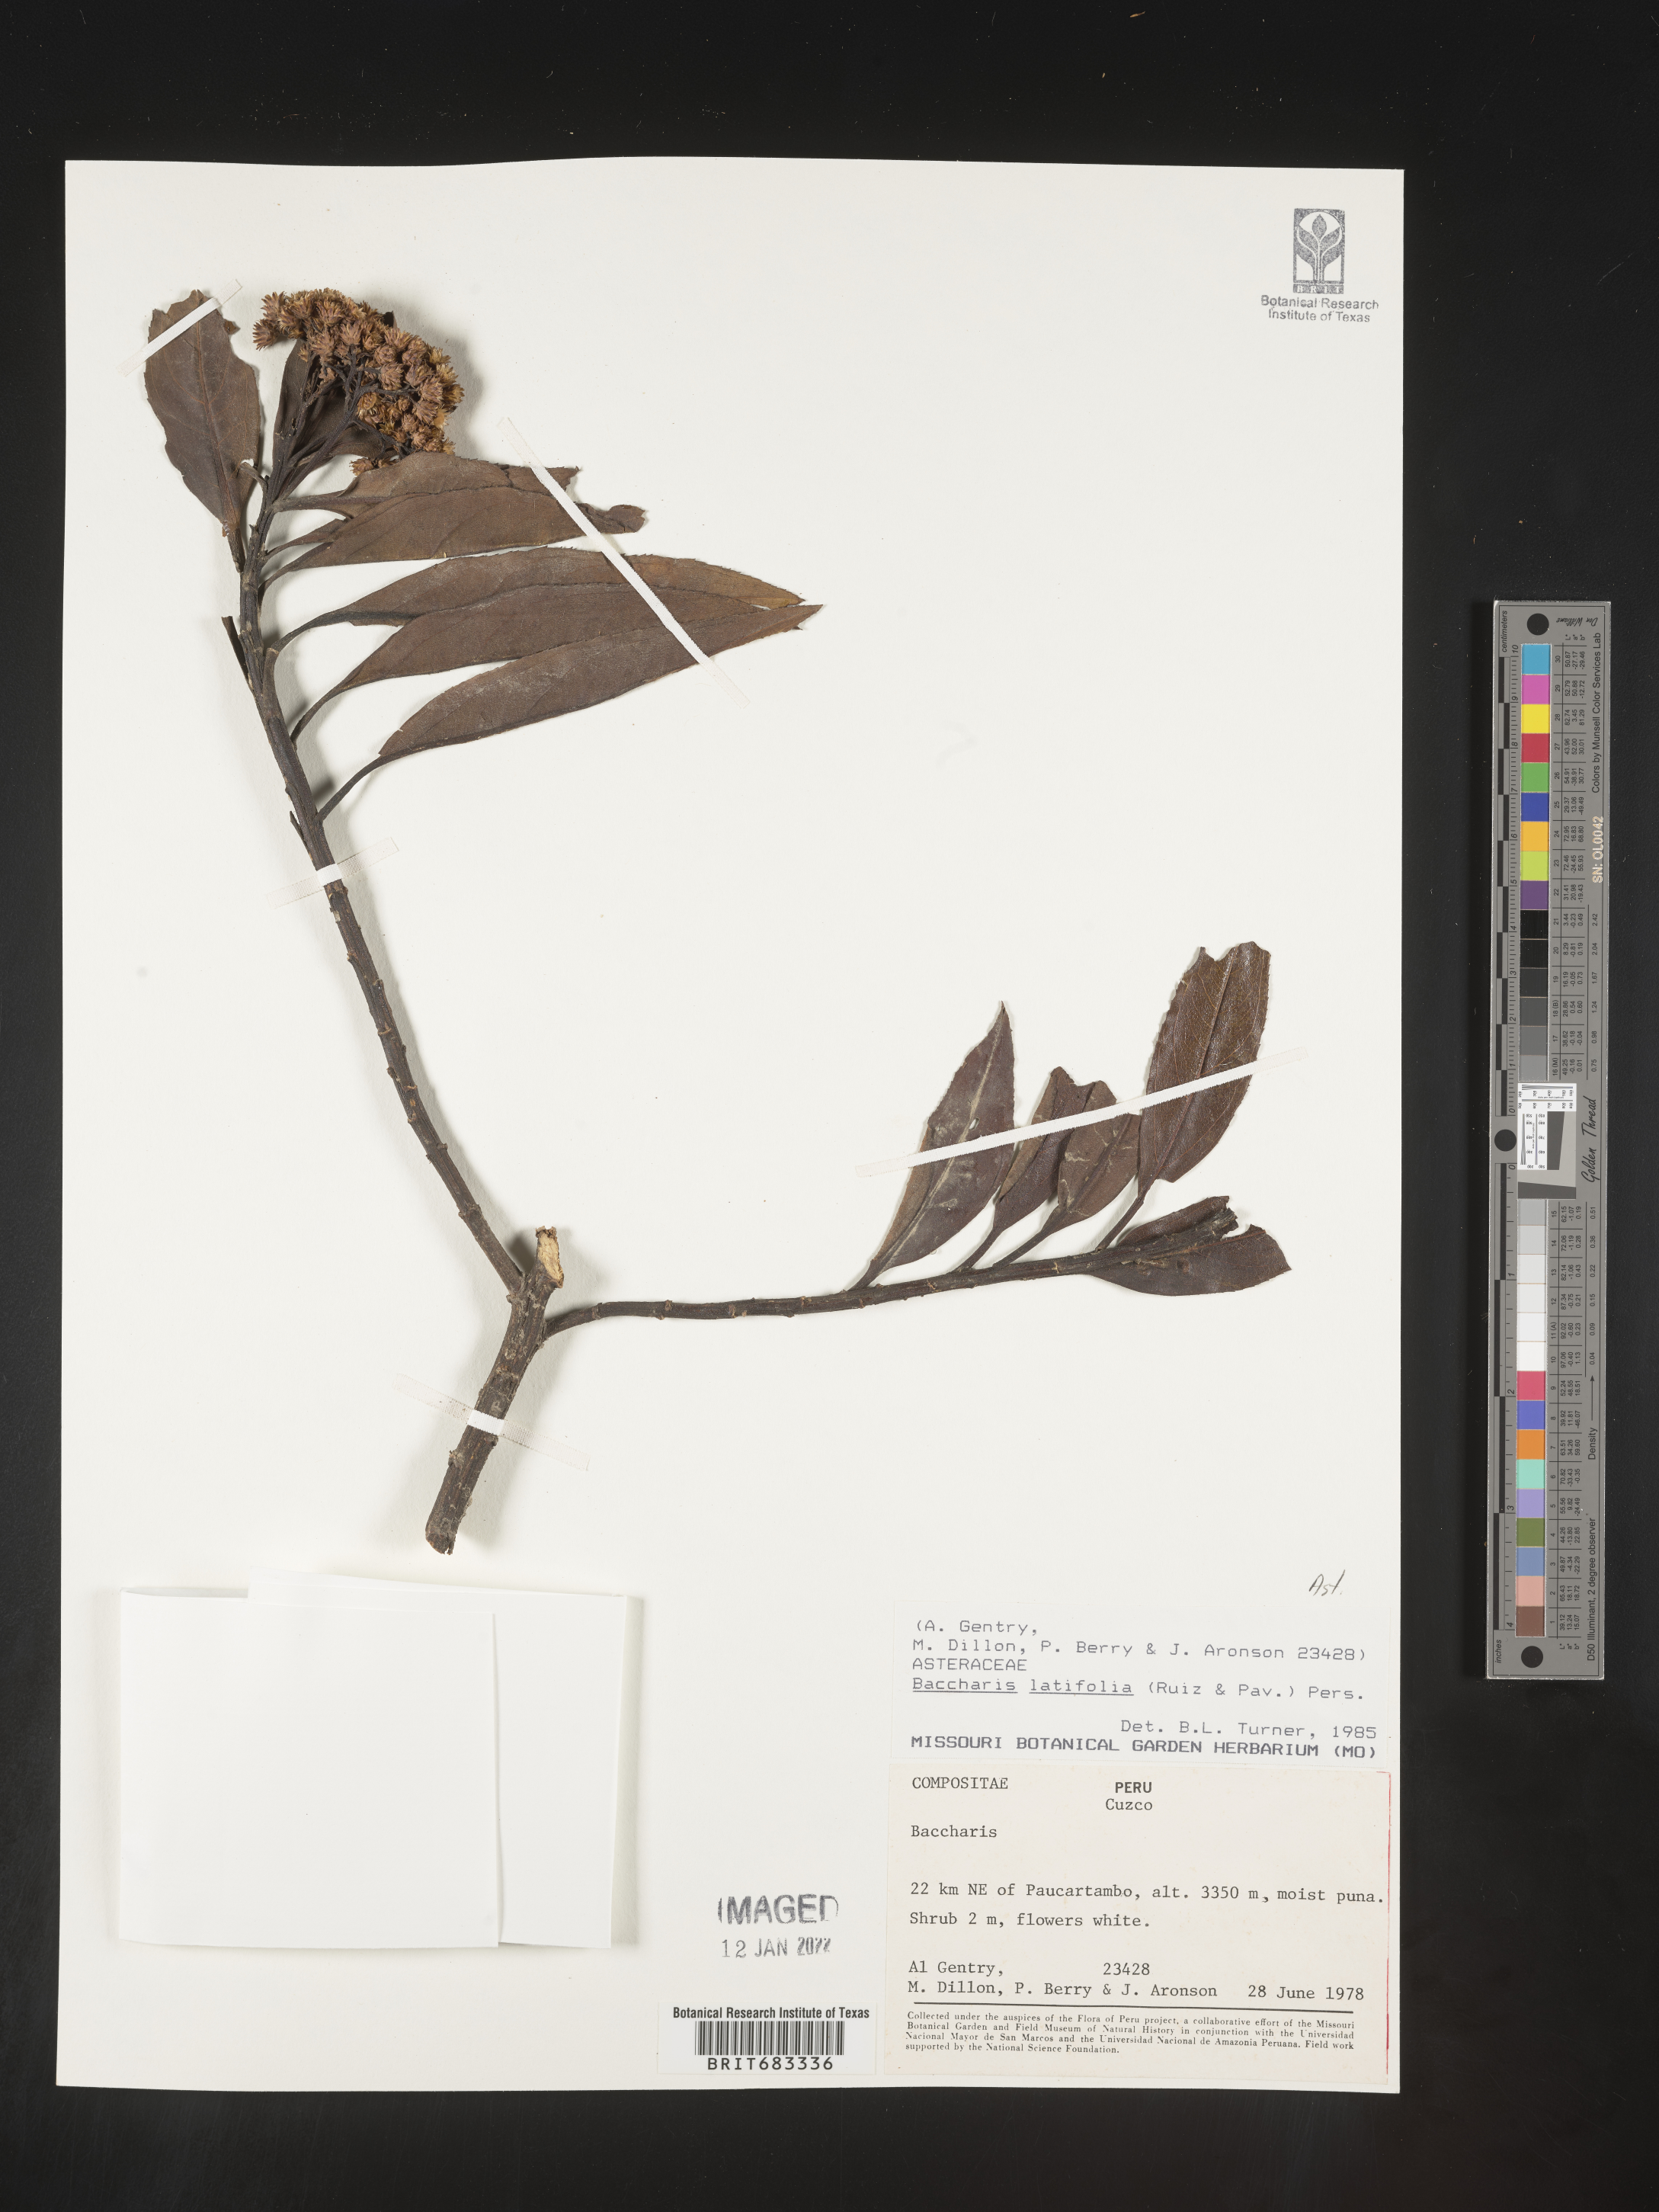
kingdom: Plantae
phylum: Tracheophyta
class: Magnoliopsida
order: Asterales
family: Asteraceae
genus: Baccharis
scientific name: Baccharis
